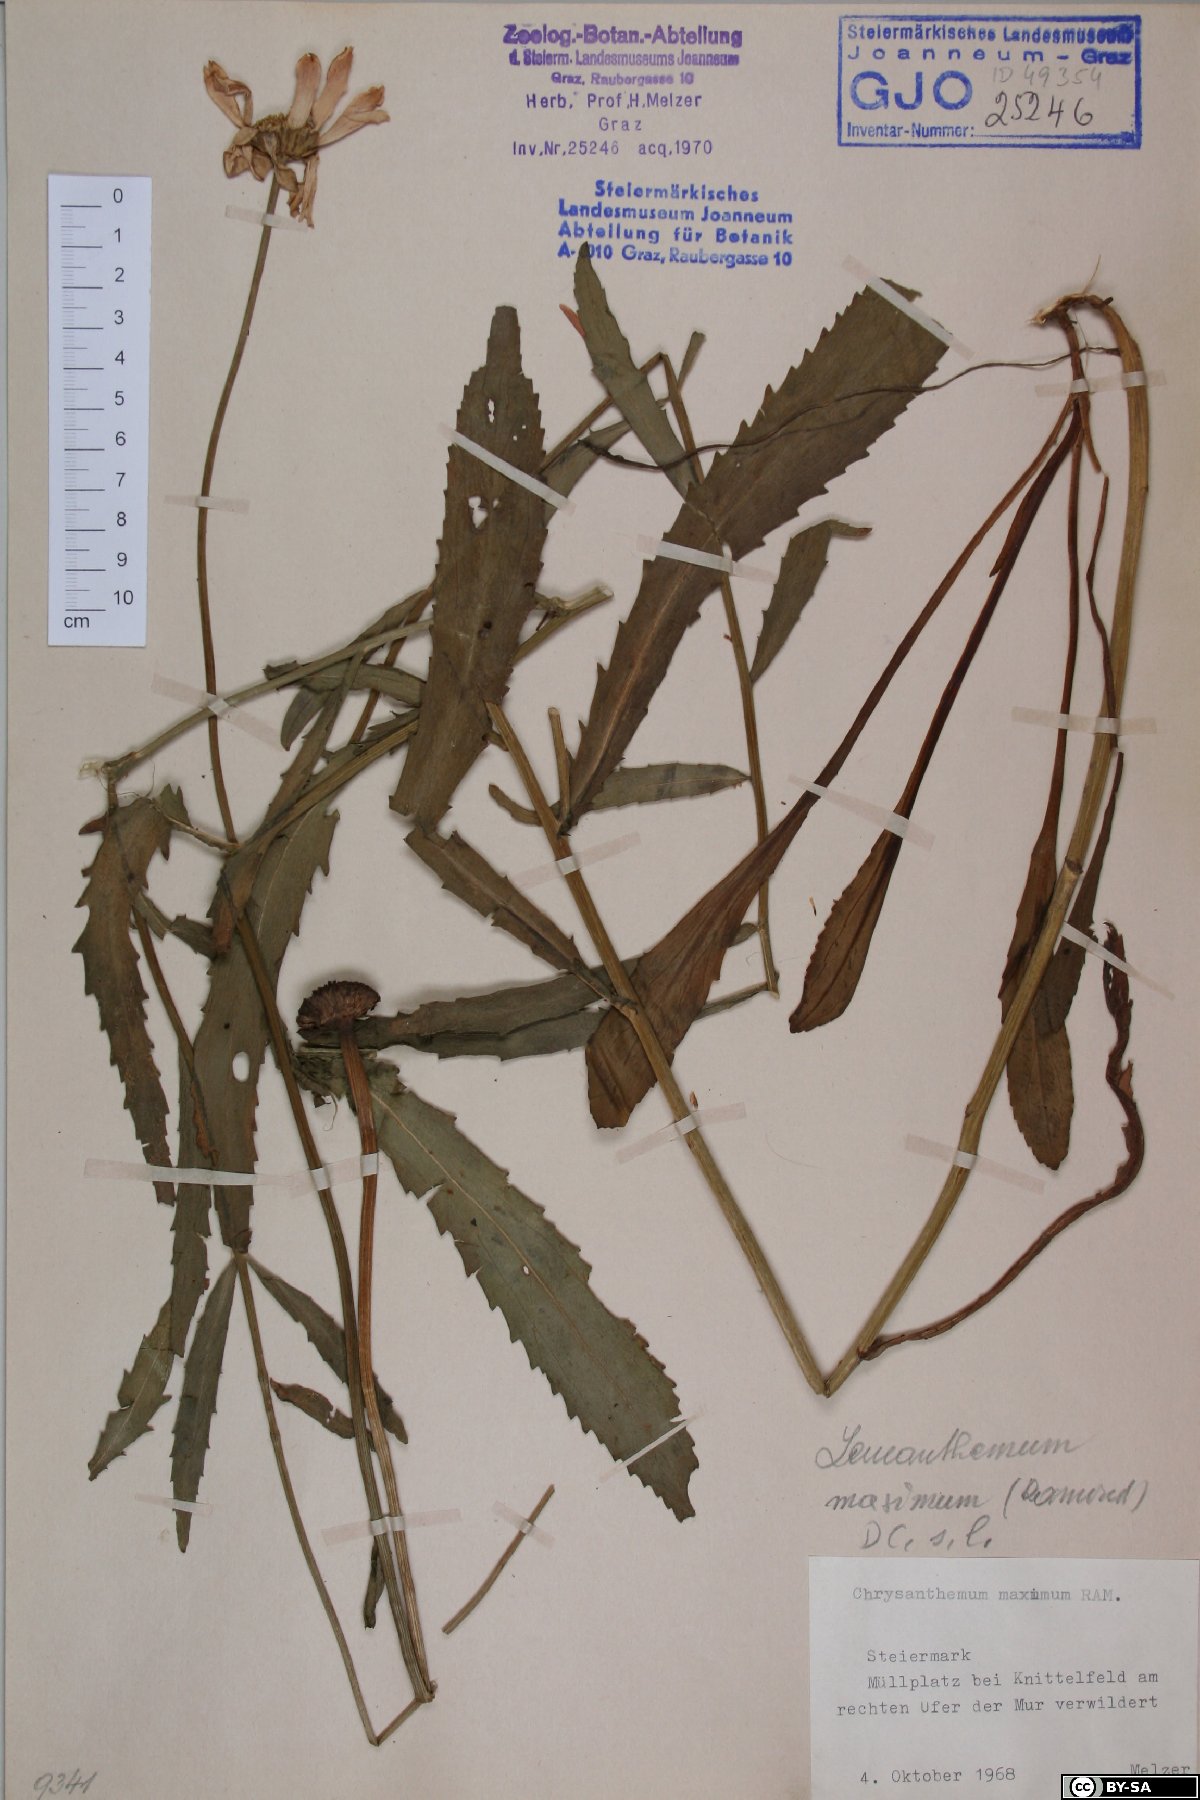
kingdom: Plantae
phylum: Tracheophyta
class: Magnoliopsida
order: Asterales
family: Asteraceae
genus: Leucanthemum
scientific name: Leucanthemum maximum
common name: Max chrysanthemum
